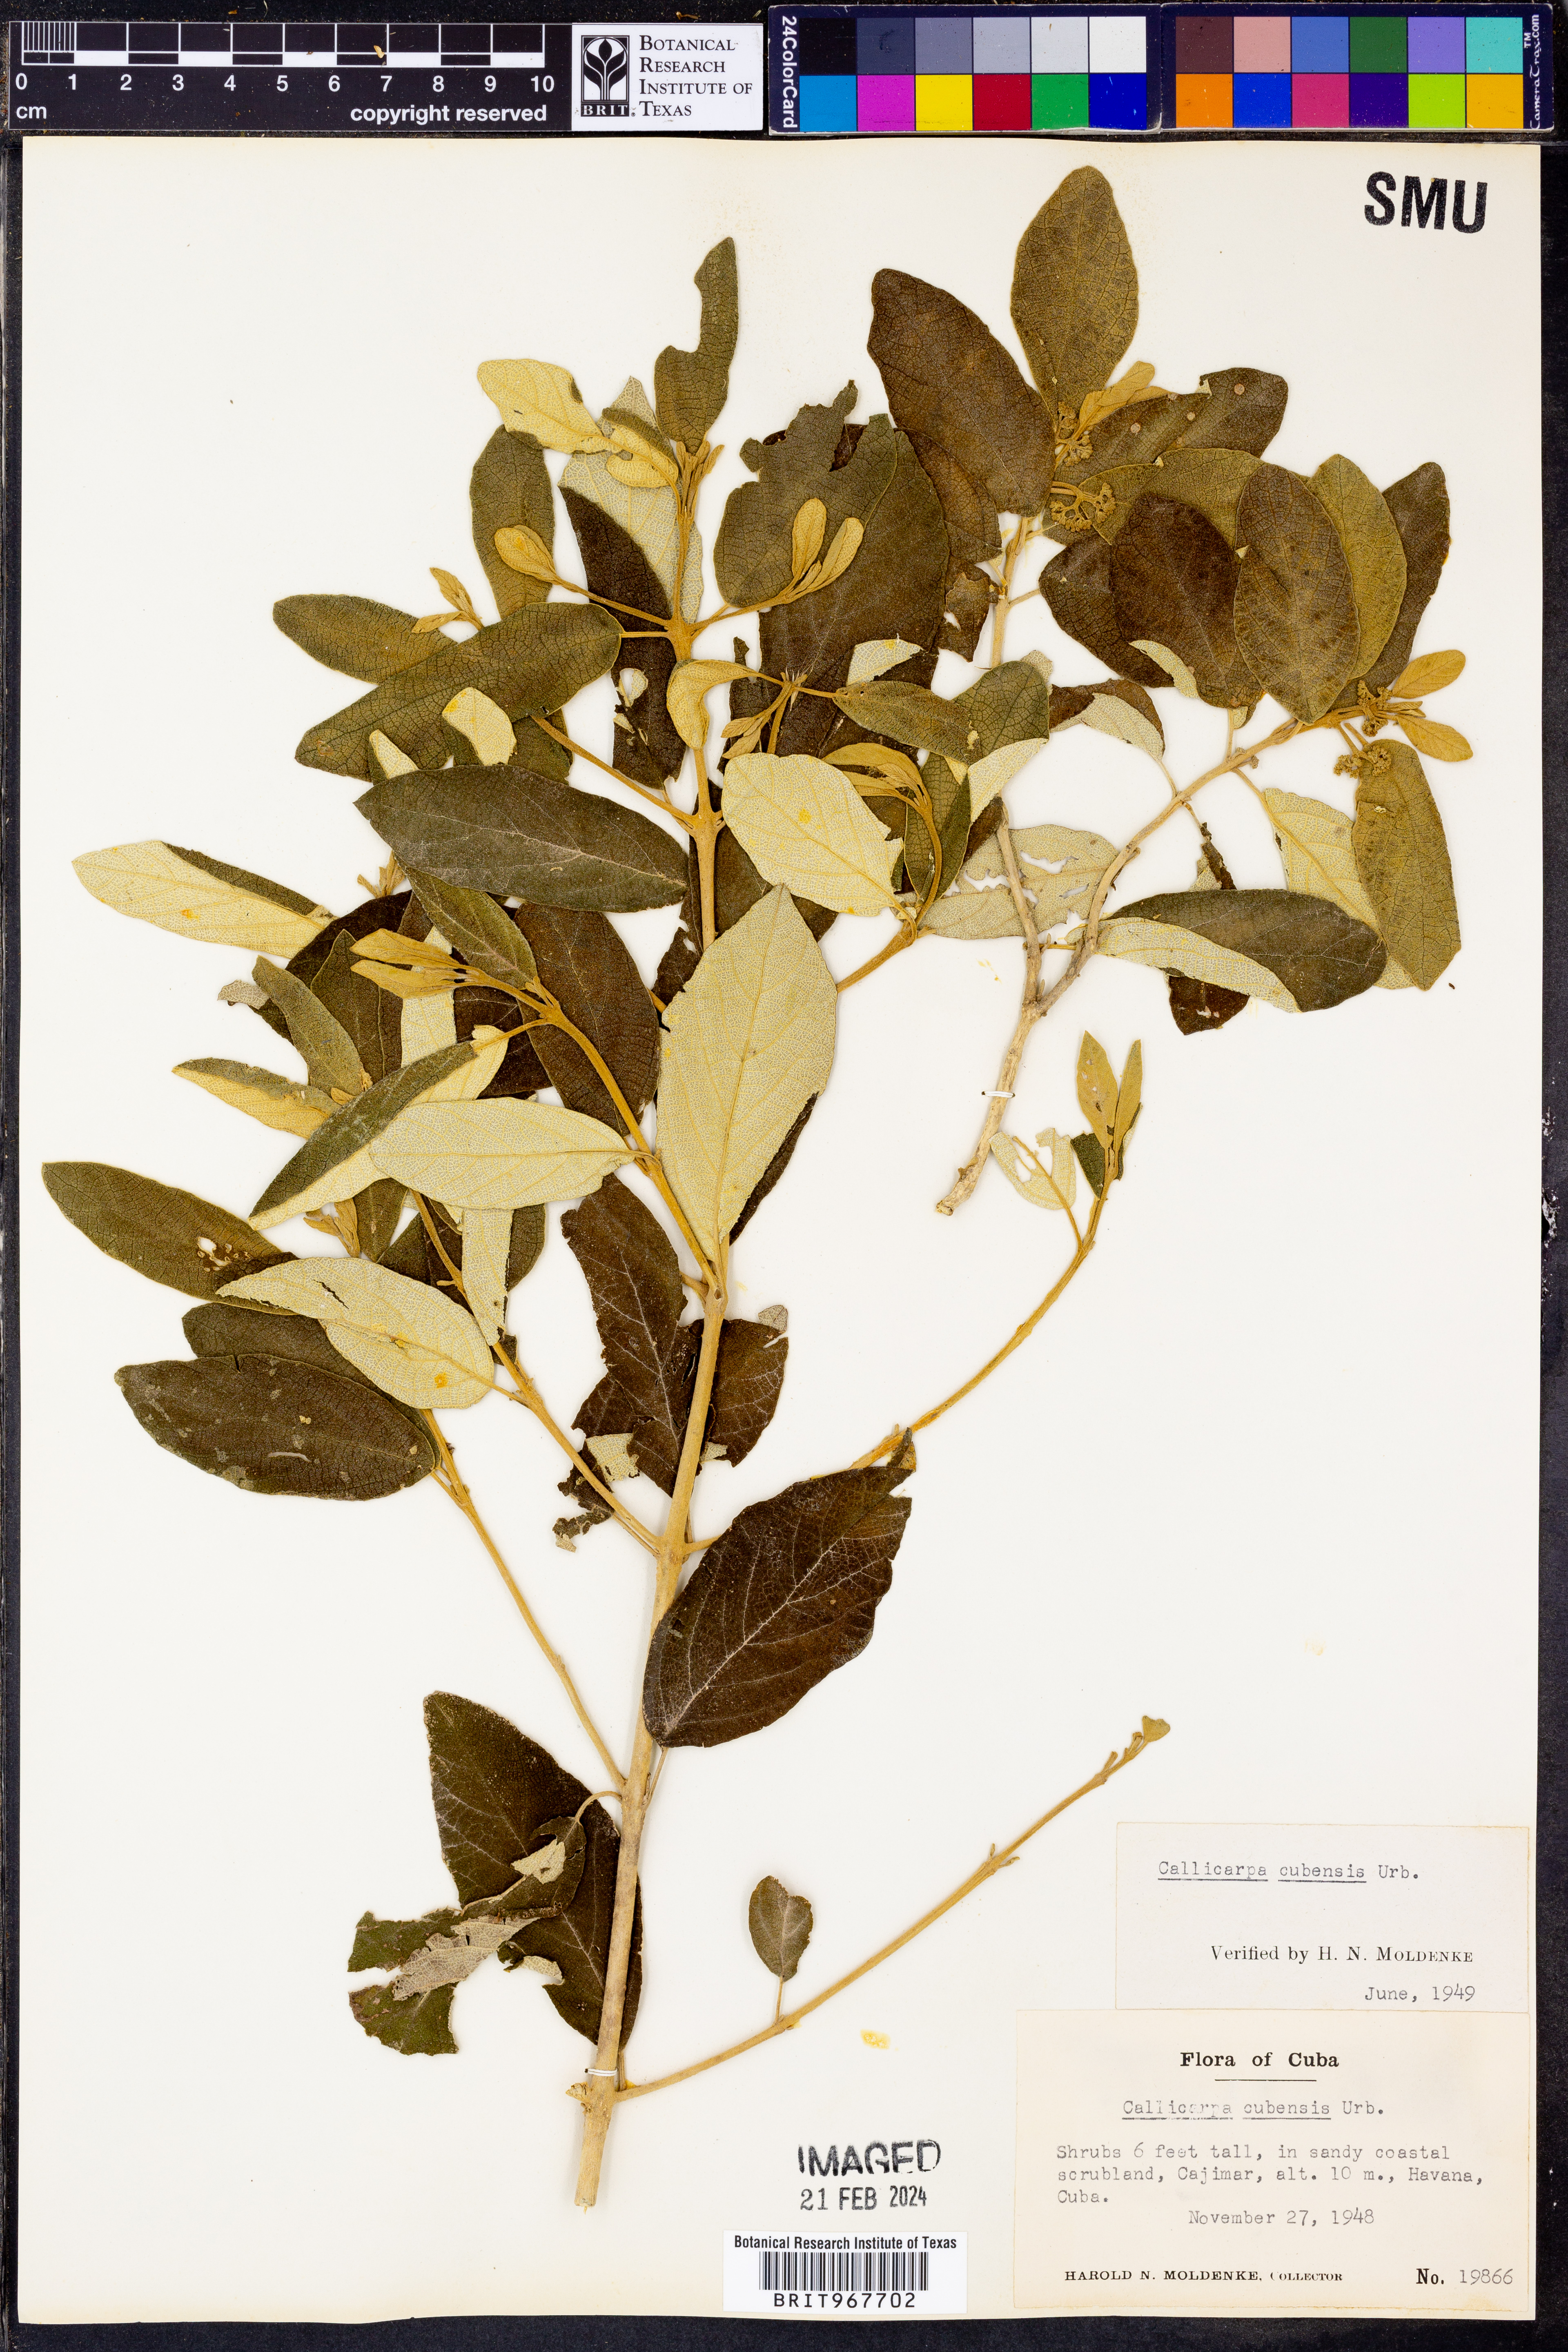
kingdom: Plantae
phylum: Tracheophyta
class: Magnoliopsida
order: Lamiales
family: Lamiaceae
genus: Callicarpa
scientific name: Callicarpa
